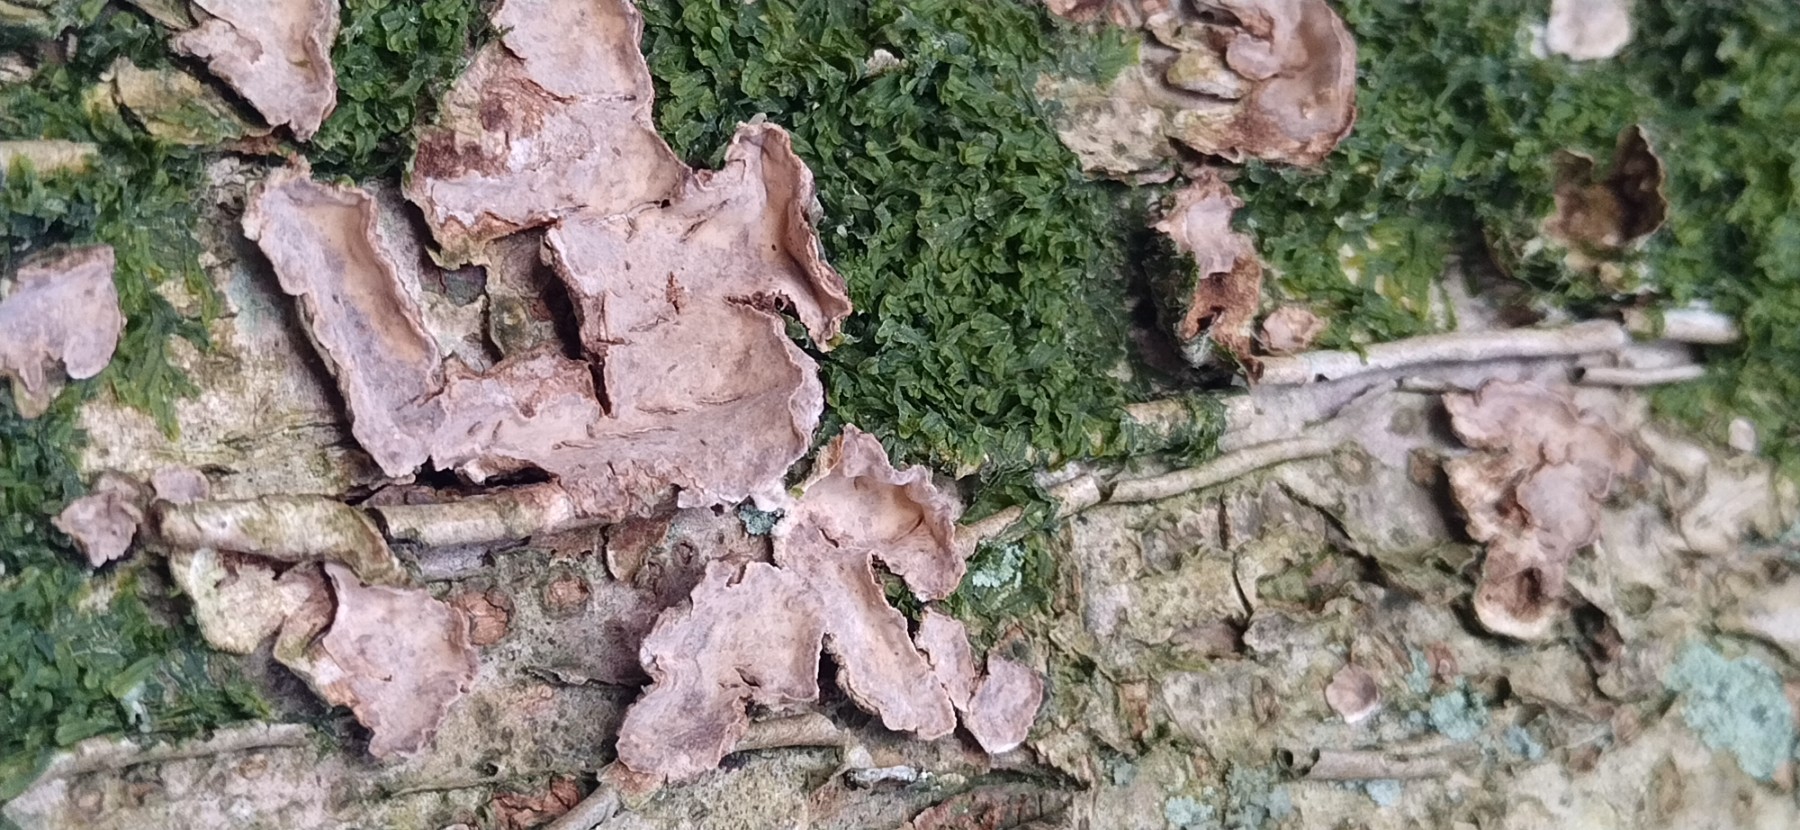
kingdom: Fungi
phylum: Basidiomycota
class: Agaricomycetes
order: Hymenochaetales
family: Hymenochaetaceae
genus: Hydnoporia
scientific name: Hydnoporia tabacina
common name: tobaksbrun ruslædersvamp
